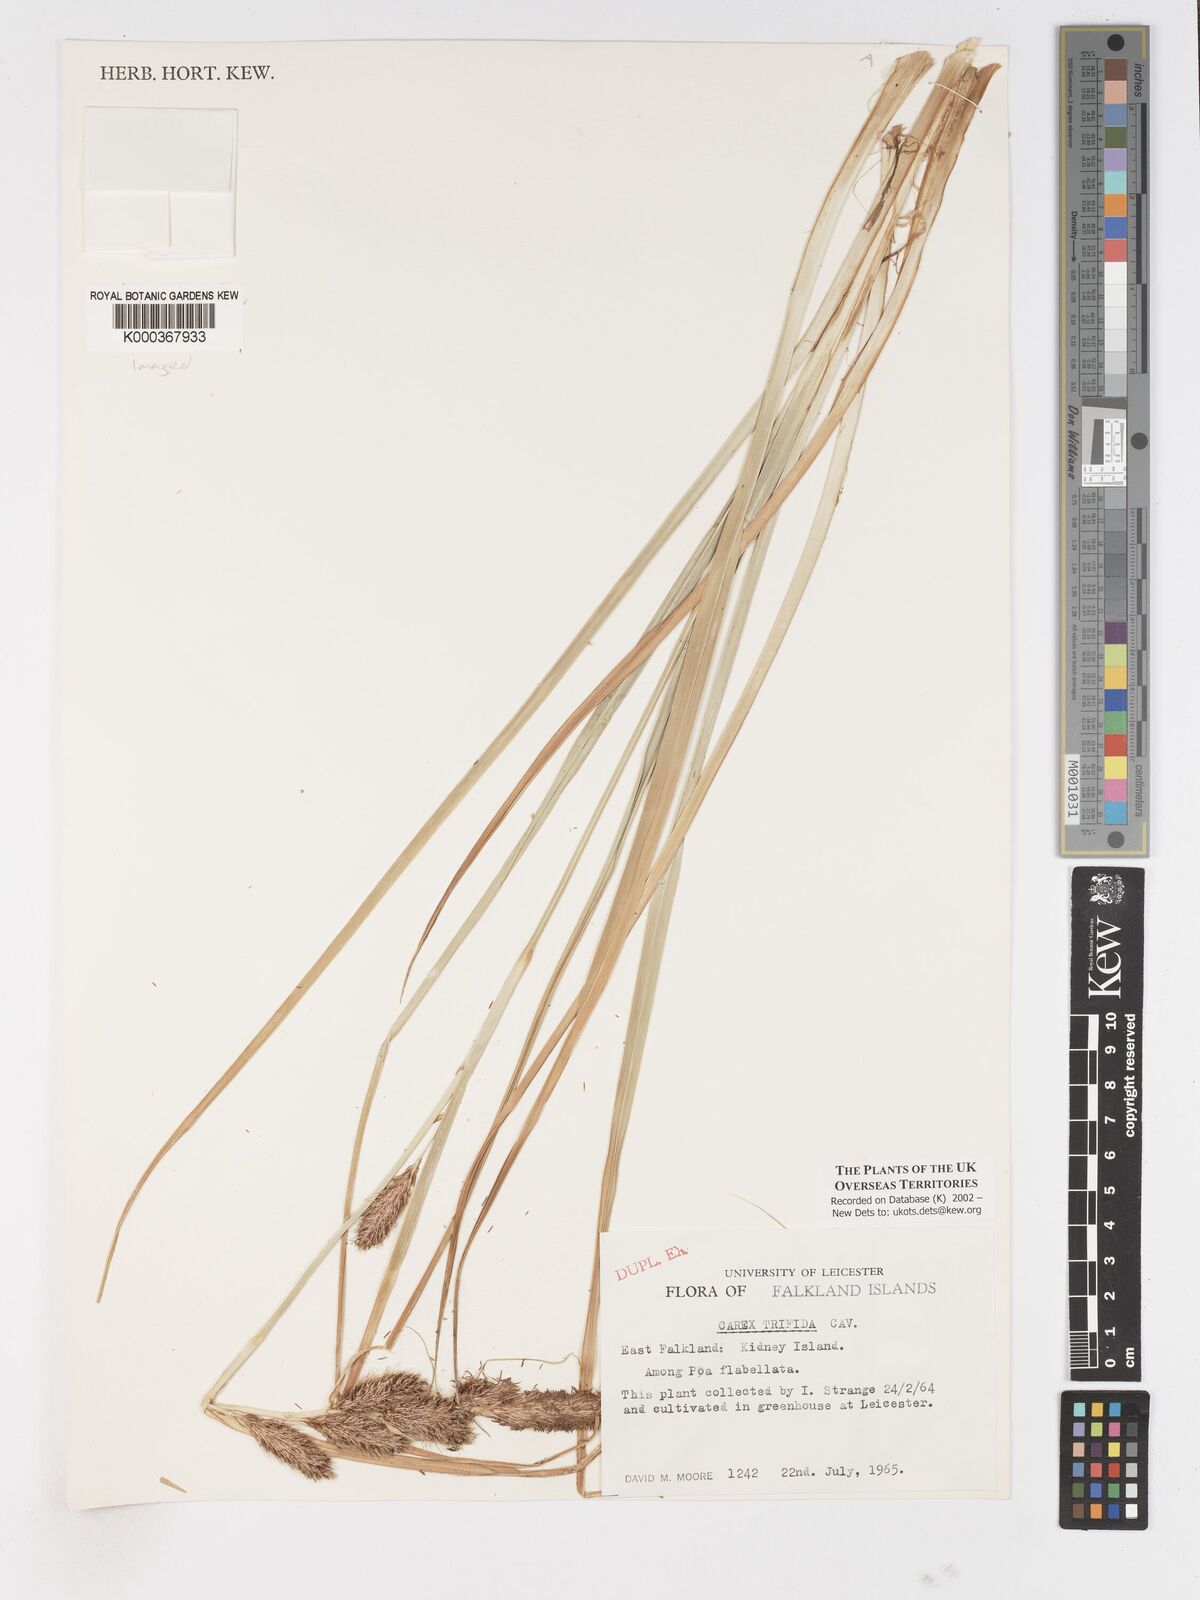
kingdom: Plantae
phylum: Tracheophyta
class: Liliopsida
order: Poales
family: Cyperaceae
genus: Carex
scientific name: Carex trifida
